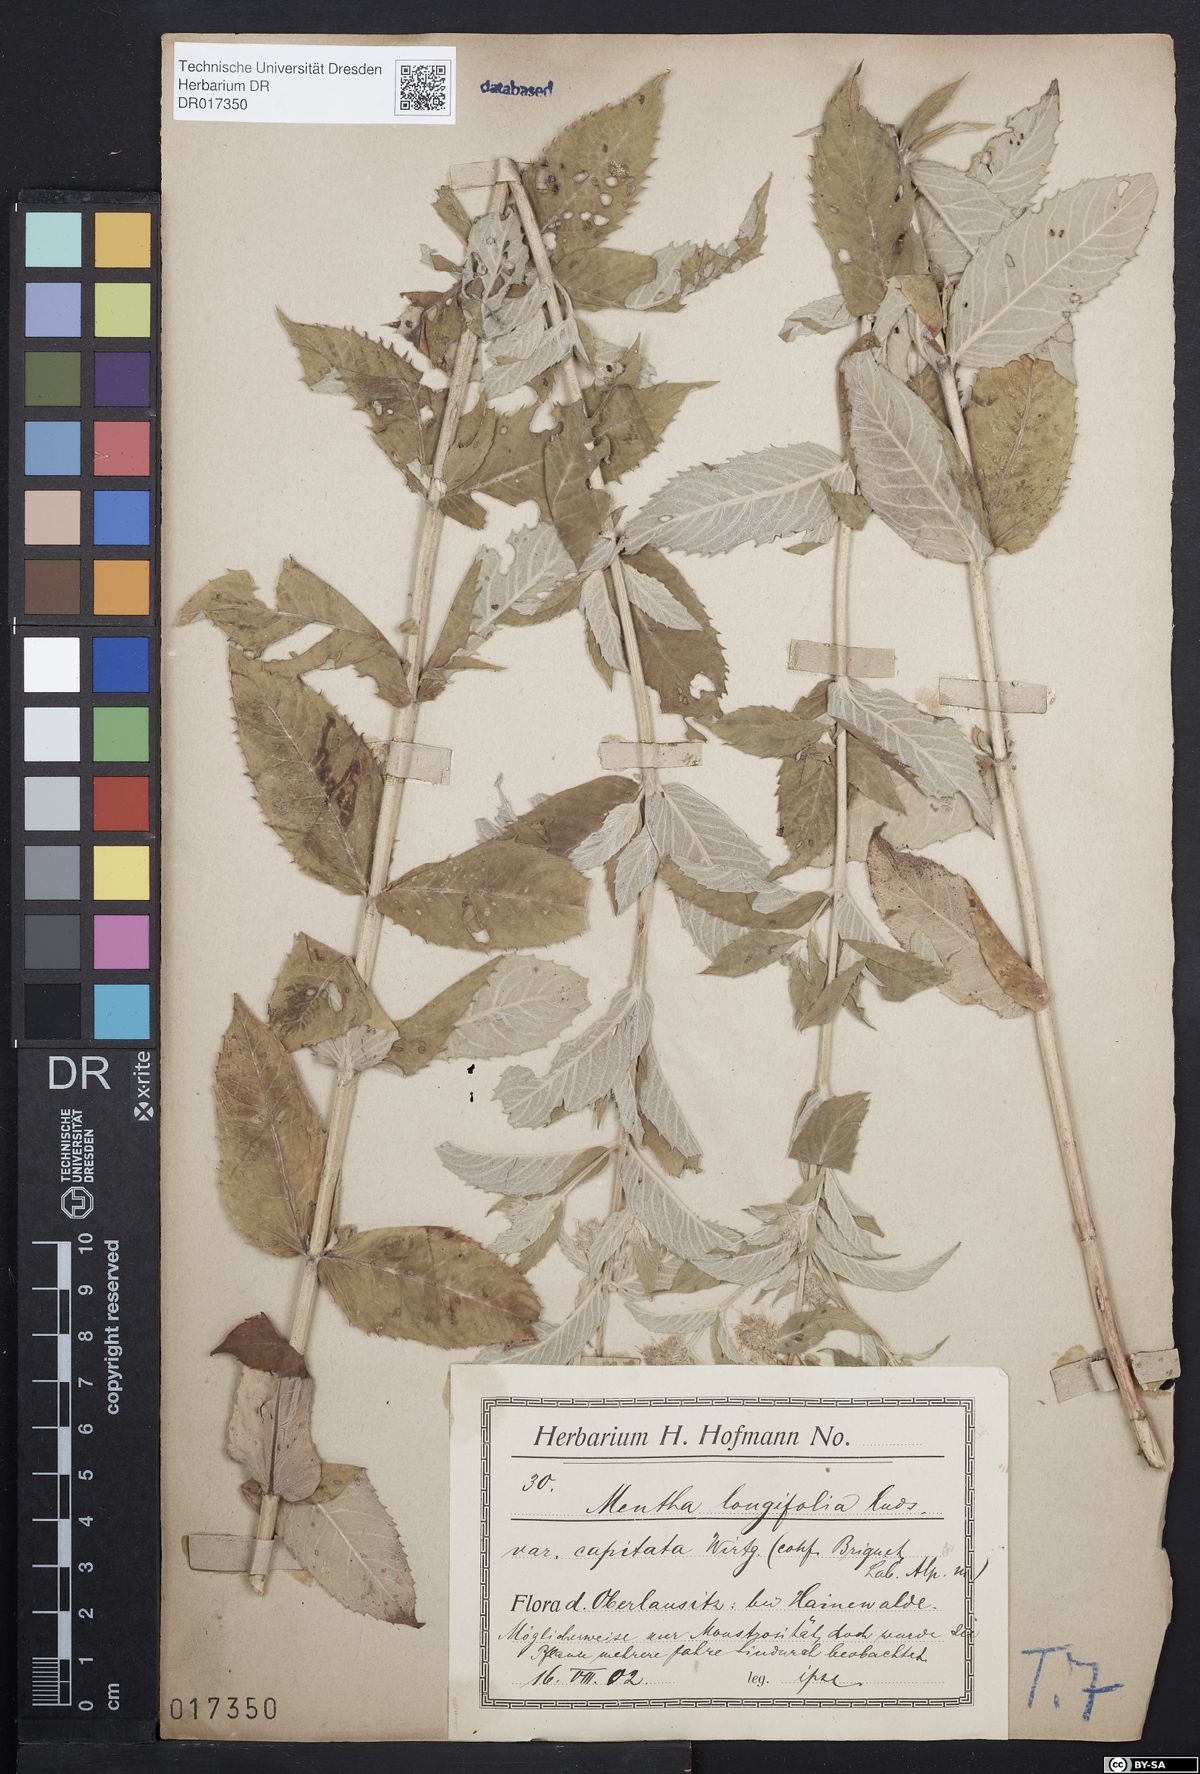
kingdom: Plantae
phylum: Tracheophyta
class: Magnoliopsida
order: Lamiales
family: Lamiaceae
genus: Mentha
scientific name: Mentha longifolia
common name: Horse mint
